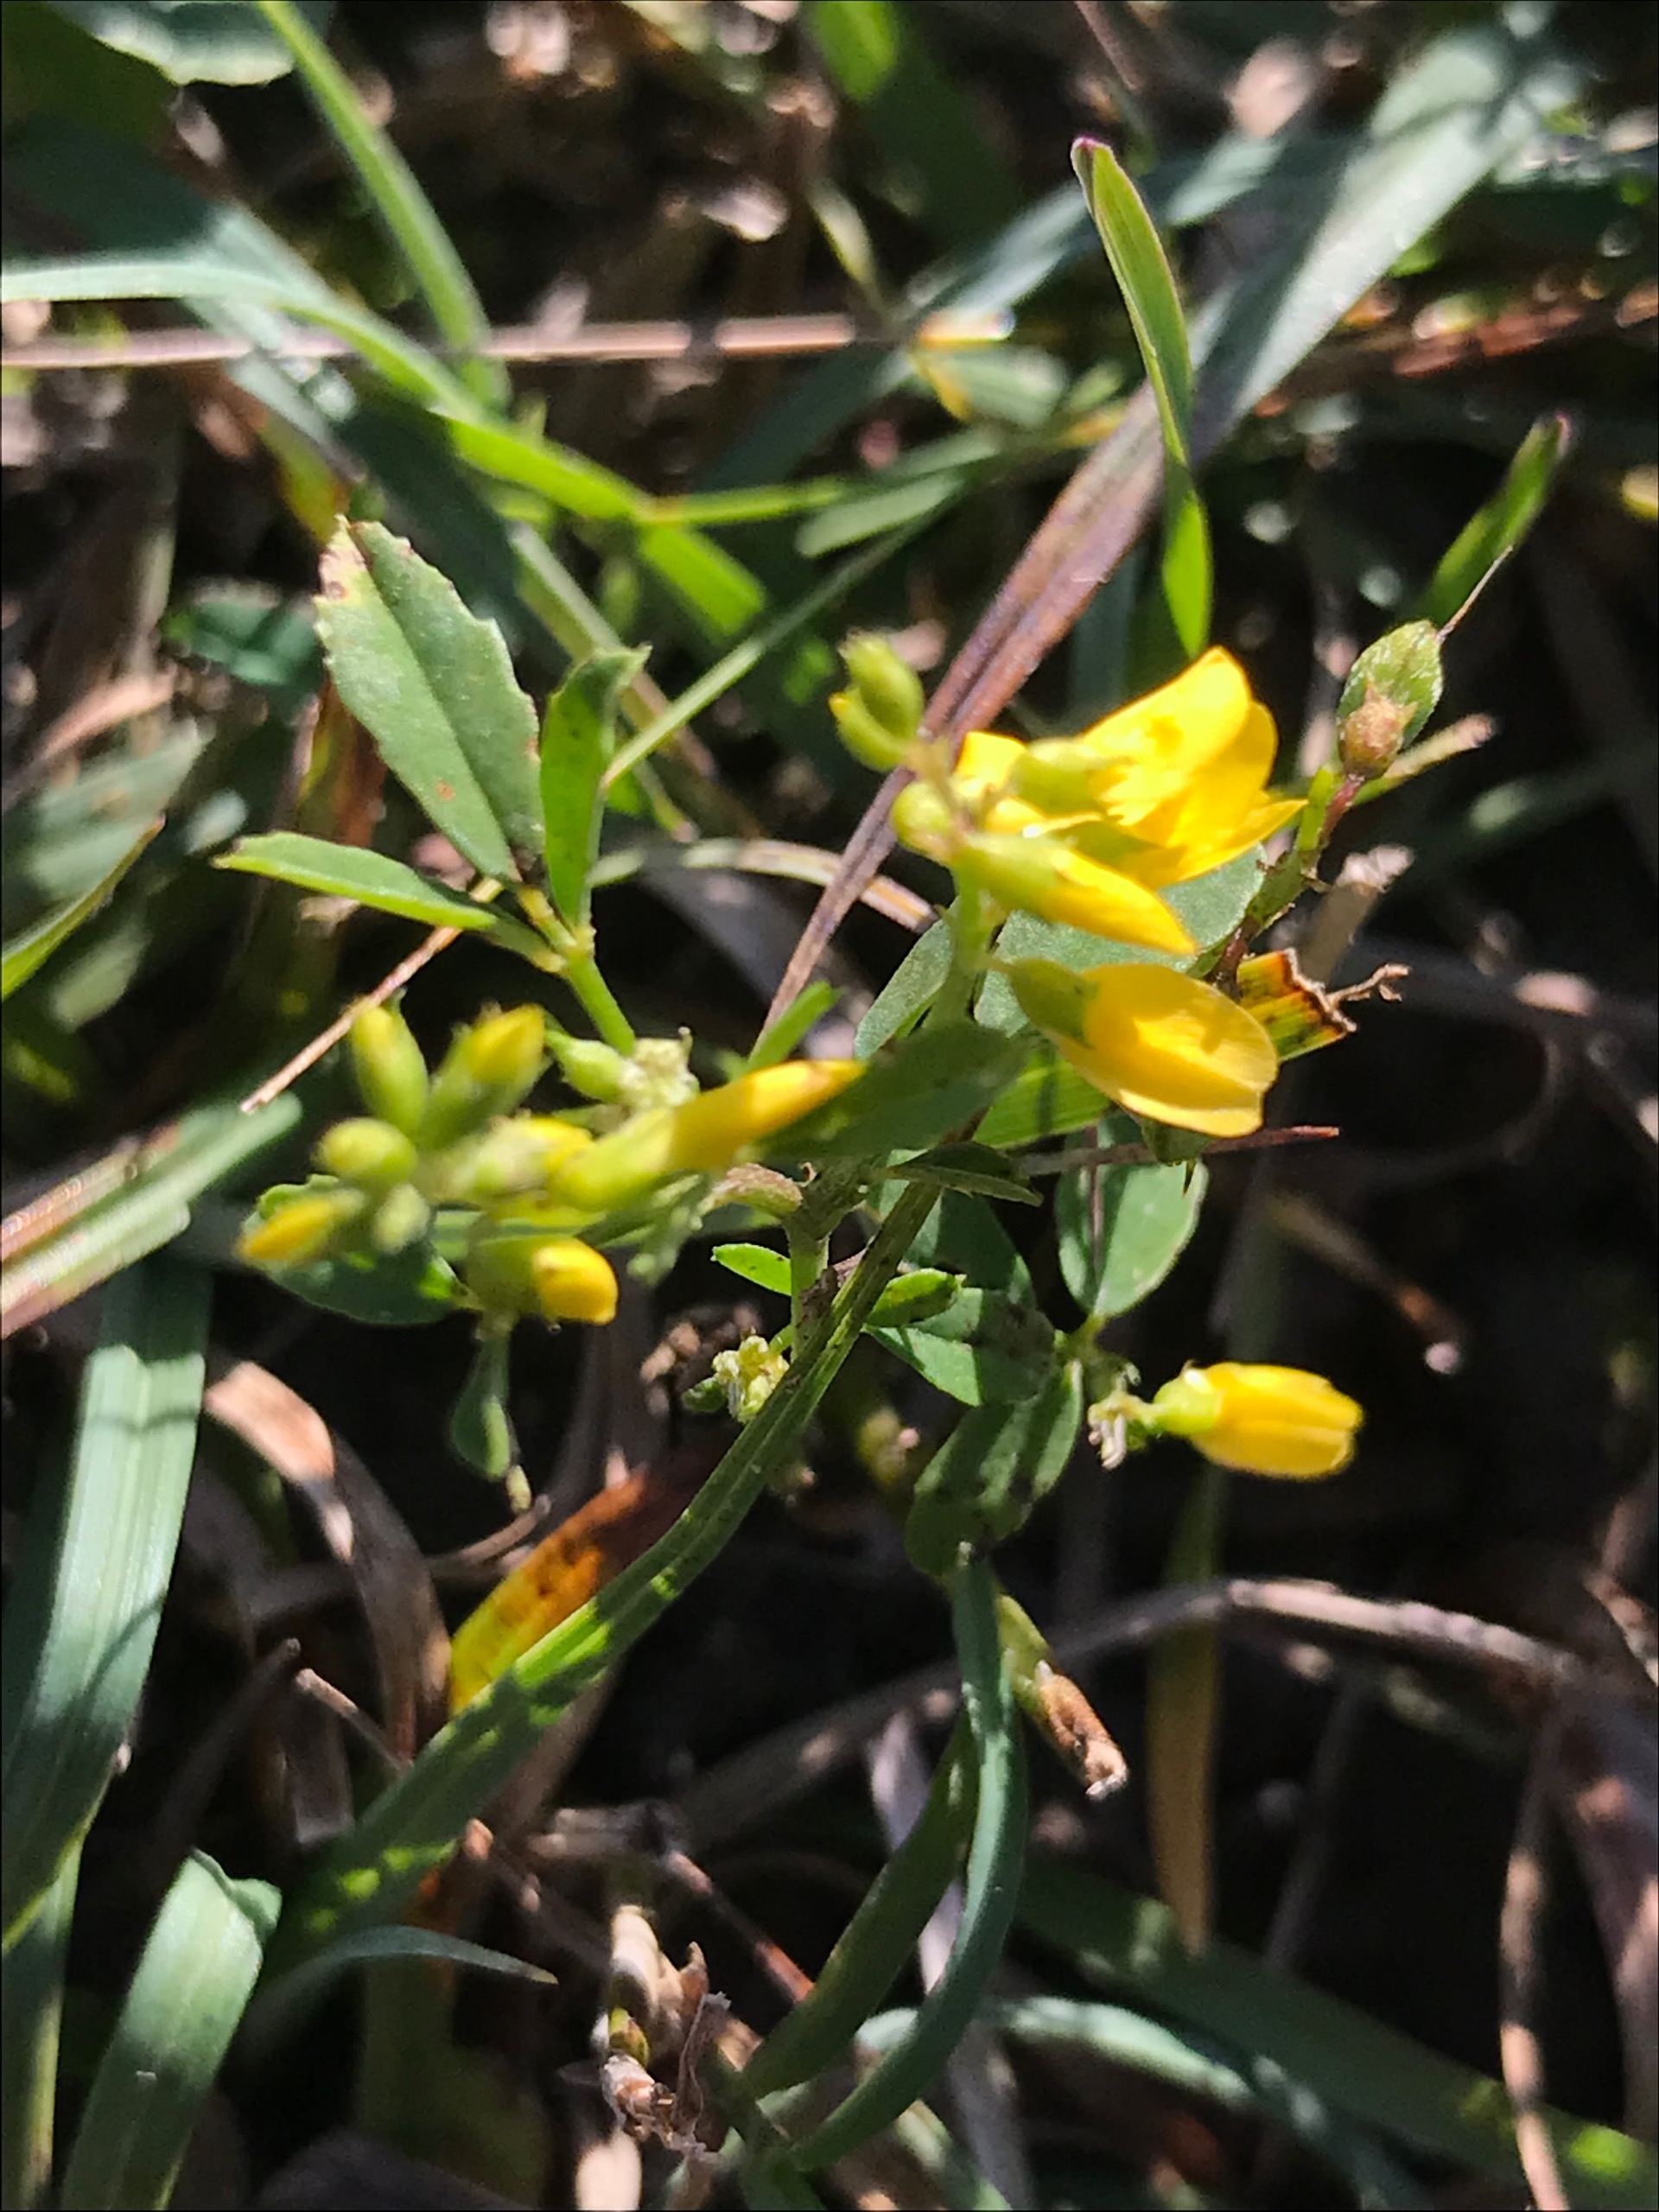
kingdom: Plantae
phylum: Tracheophyta
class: Magnoliopsida
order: Fabales
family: Fabaceae
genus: Melilotus
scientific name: Melilotus officinalis
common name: Mark-stenkløver
